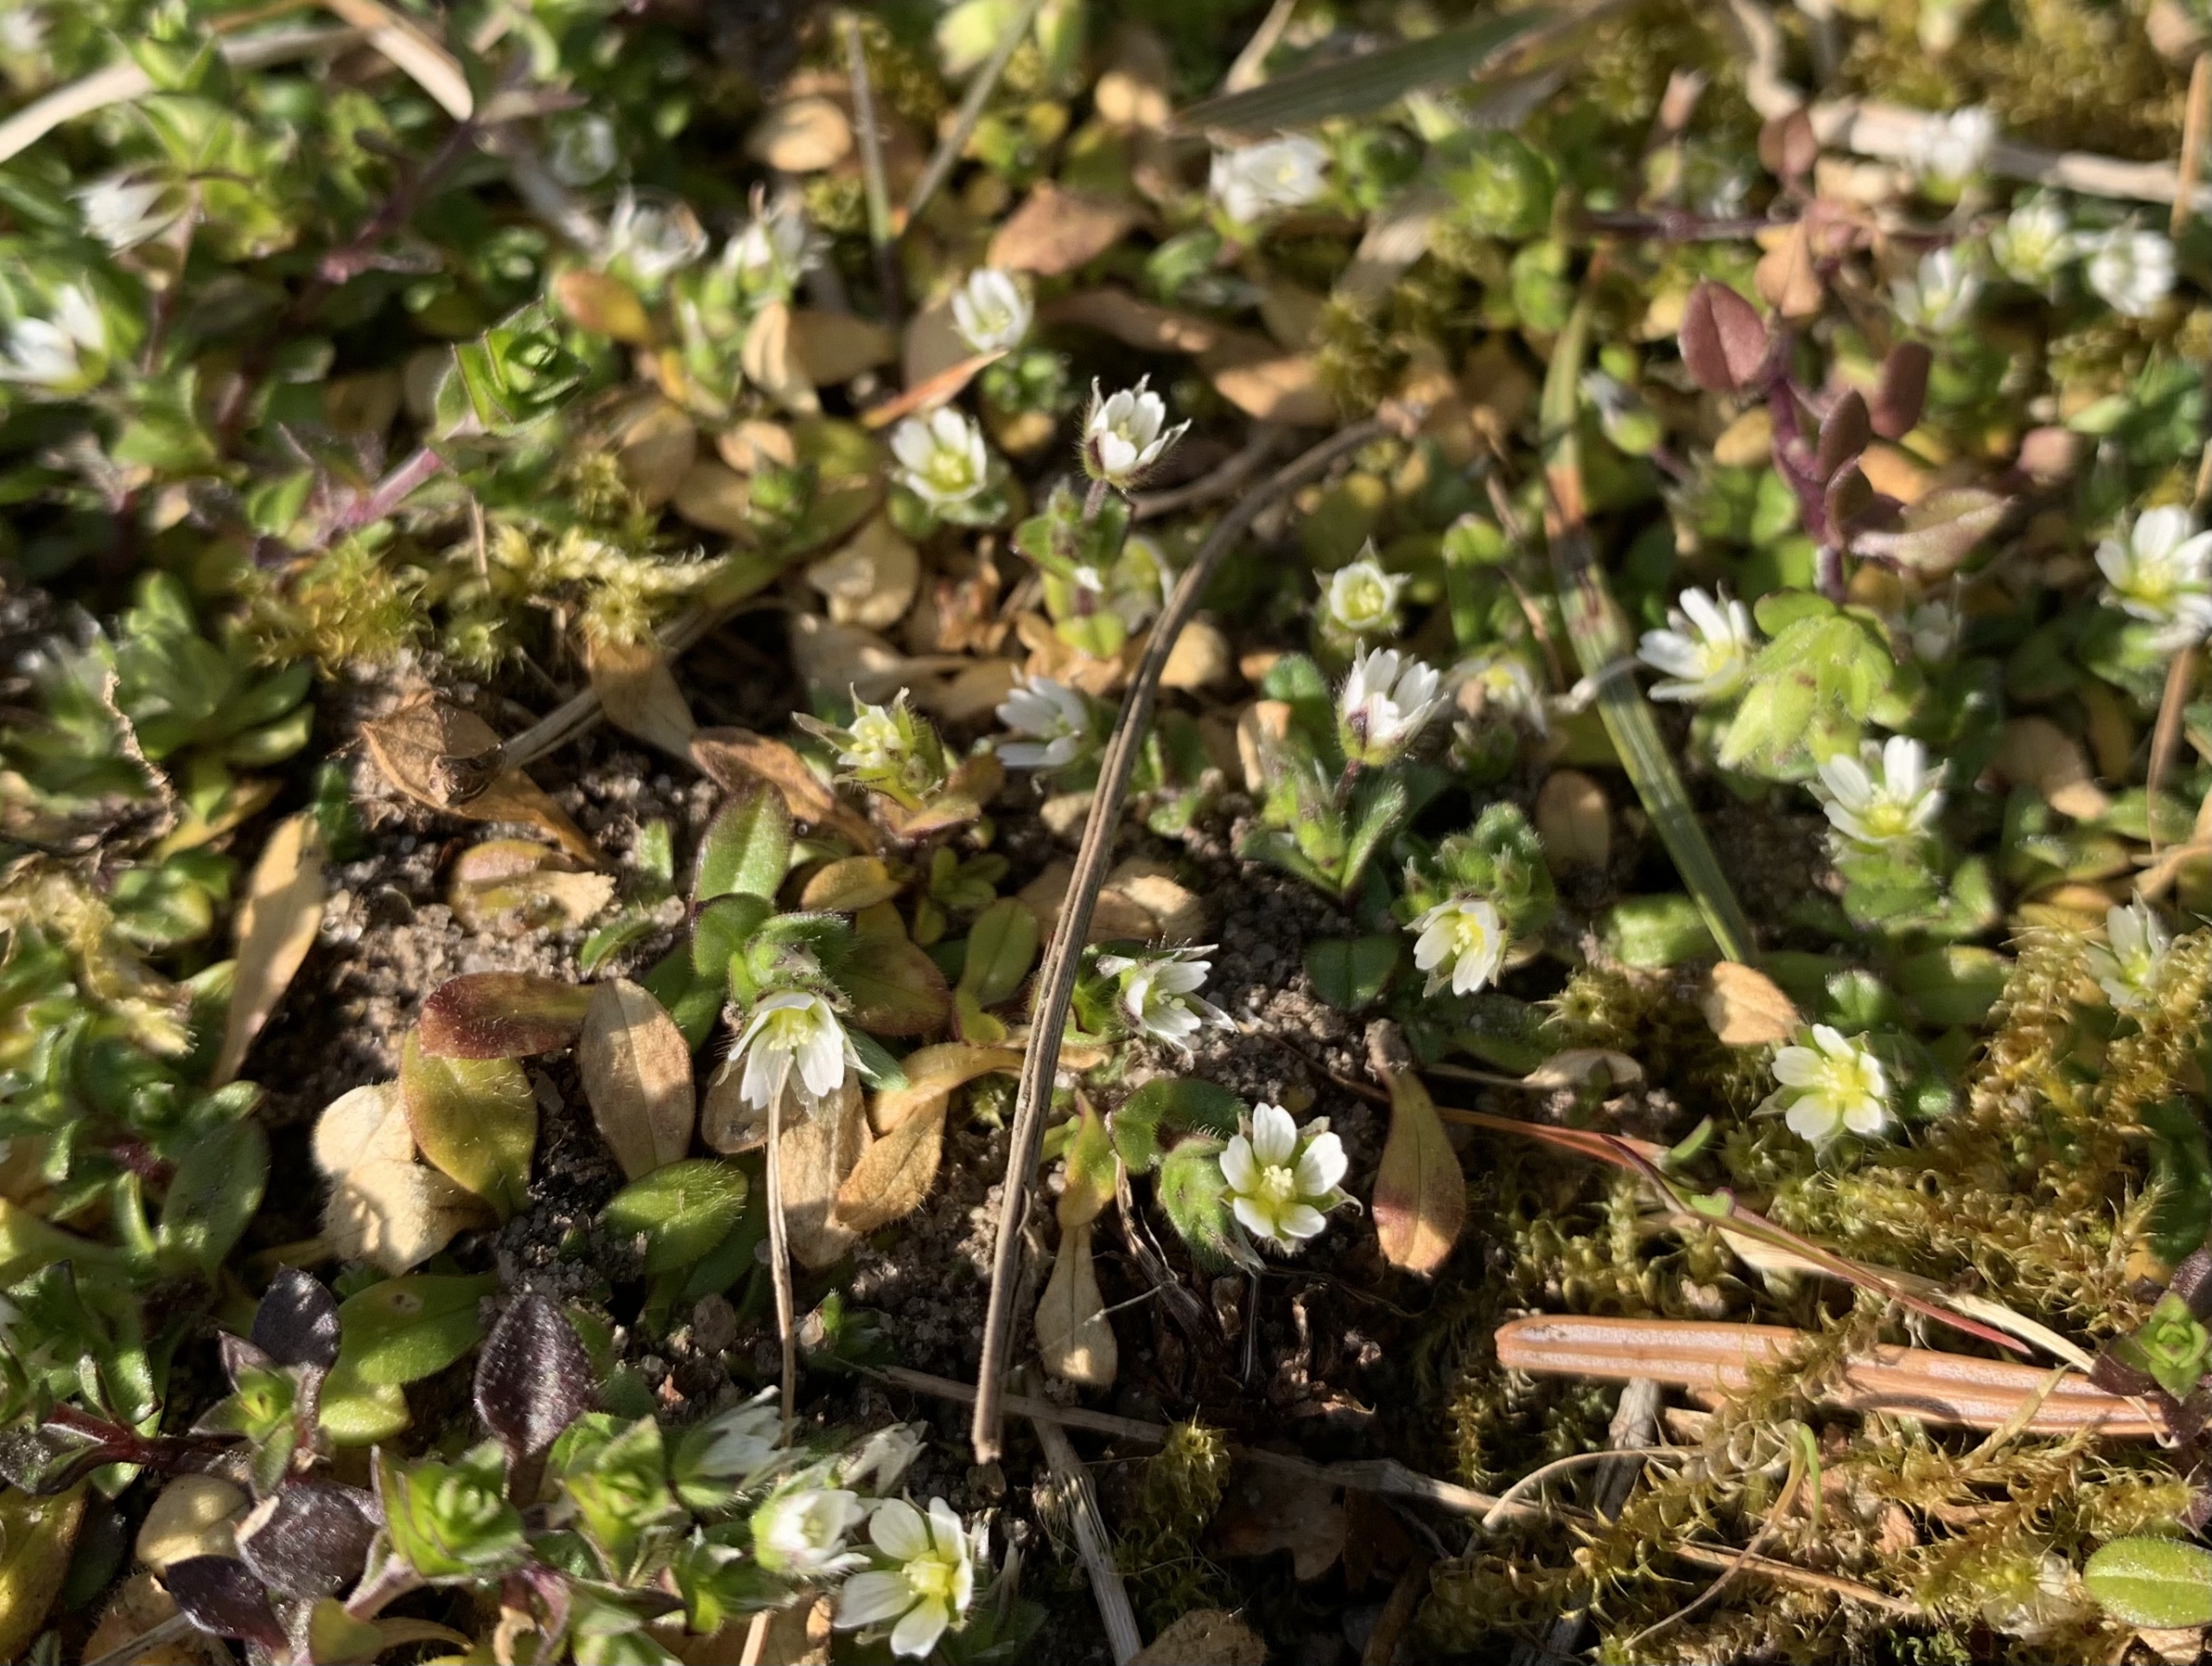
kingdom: Plantae
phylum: Tracheophyta
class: Magnoliopsida
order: Caryophyllales
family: Caryophyllaceae
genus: Cerastium
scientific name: Cerastium semidecandrum
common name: Femhannet hønsetarm
